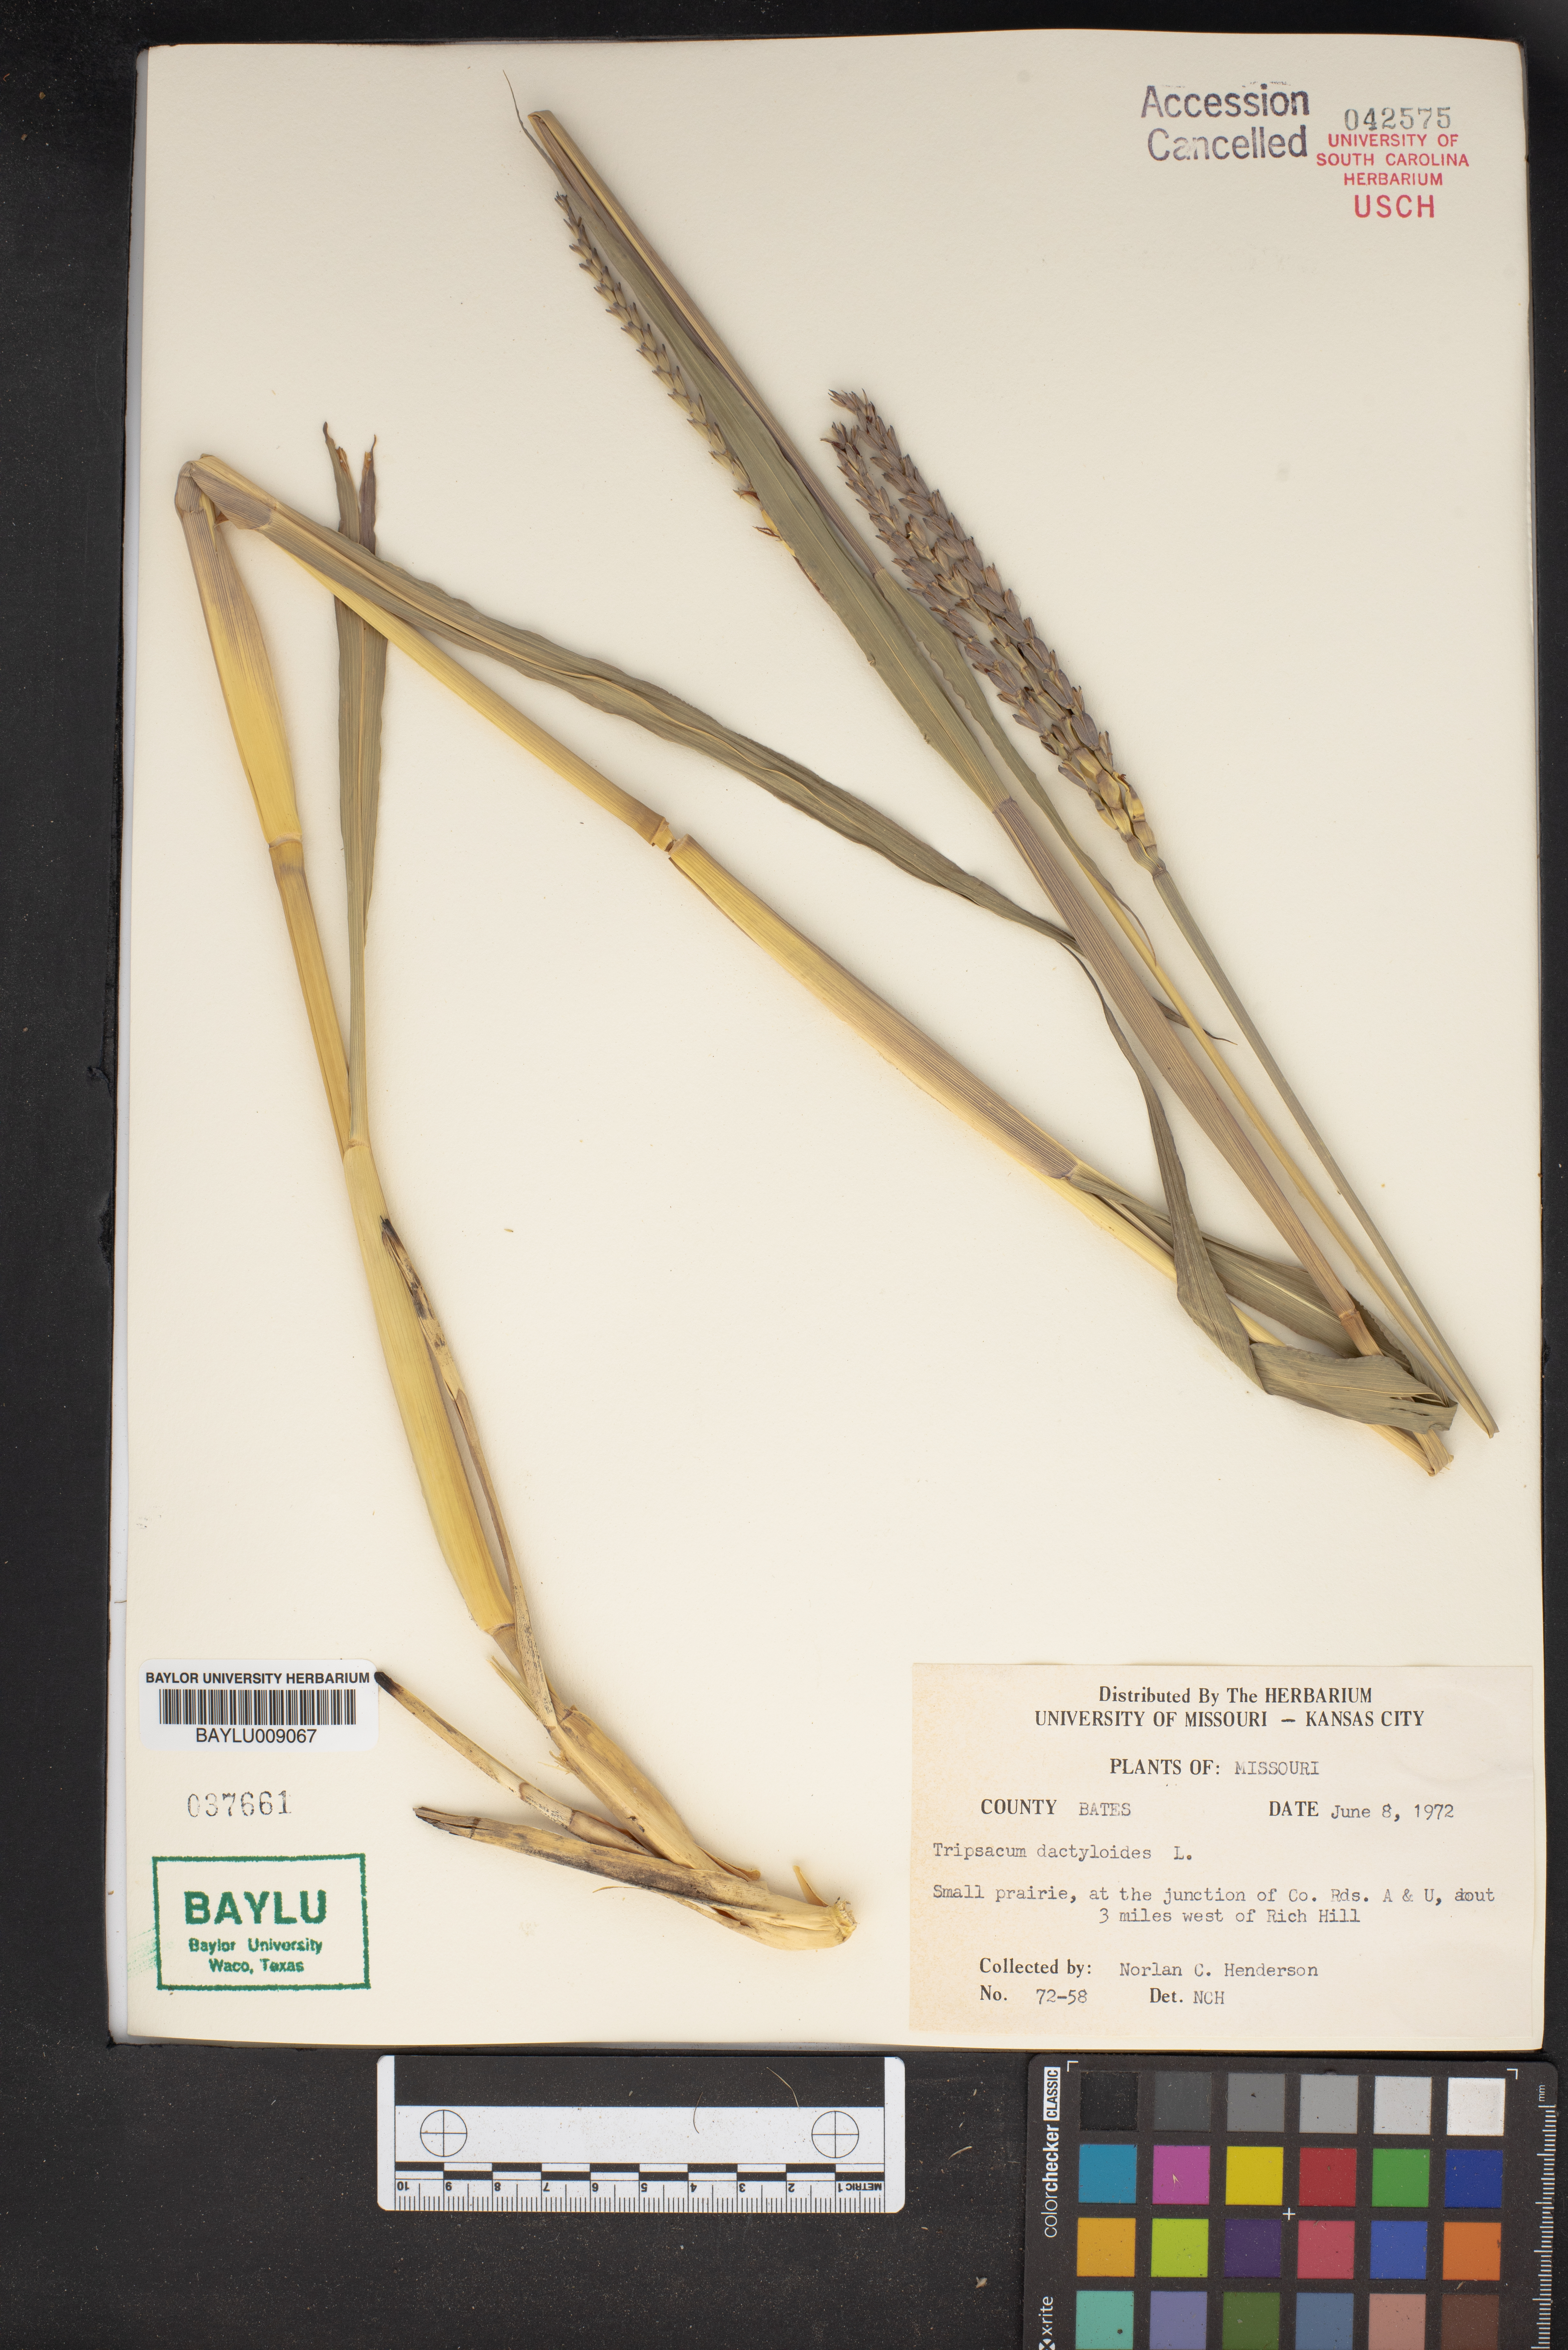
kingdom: Plantae
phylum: Tracheophyta
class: Liliopsida
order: Poales
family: Poaceae
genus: Tripsacum
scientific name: Tripsacum dactyloides
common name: Buffalo-grass
